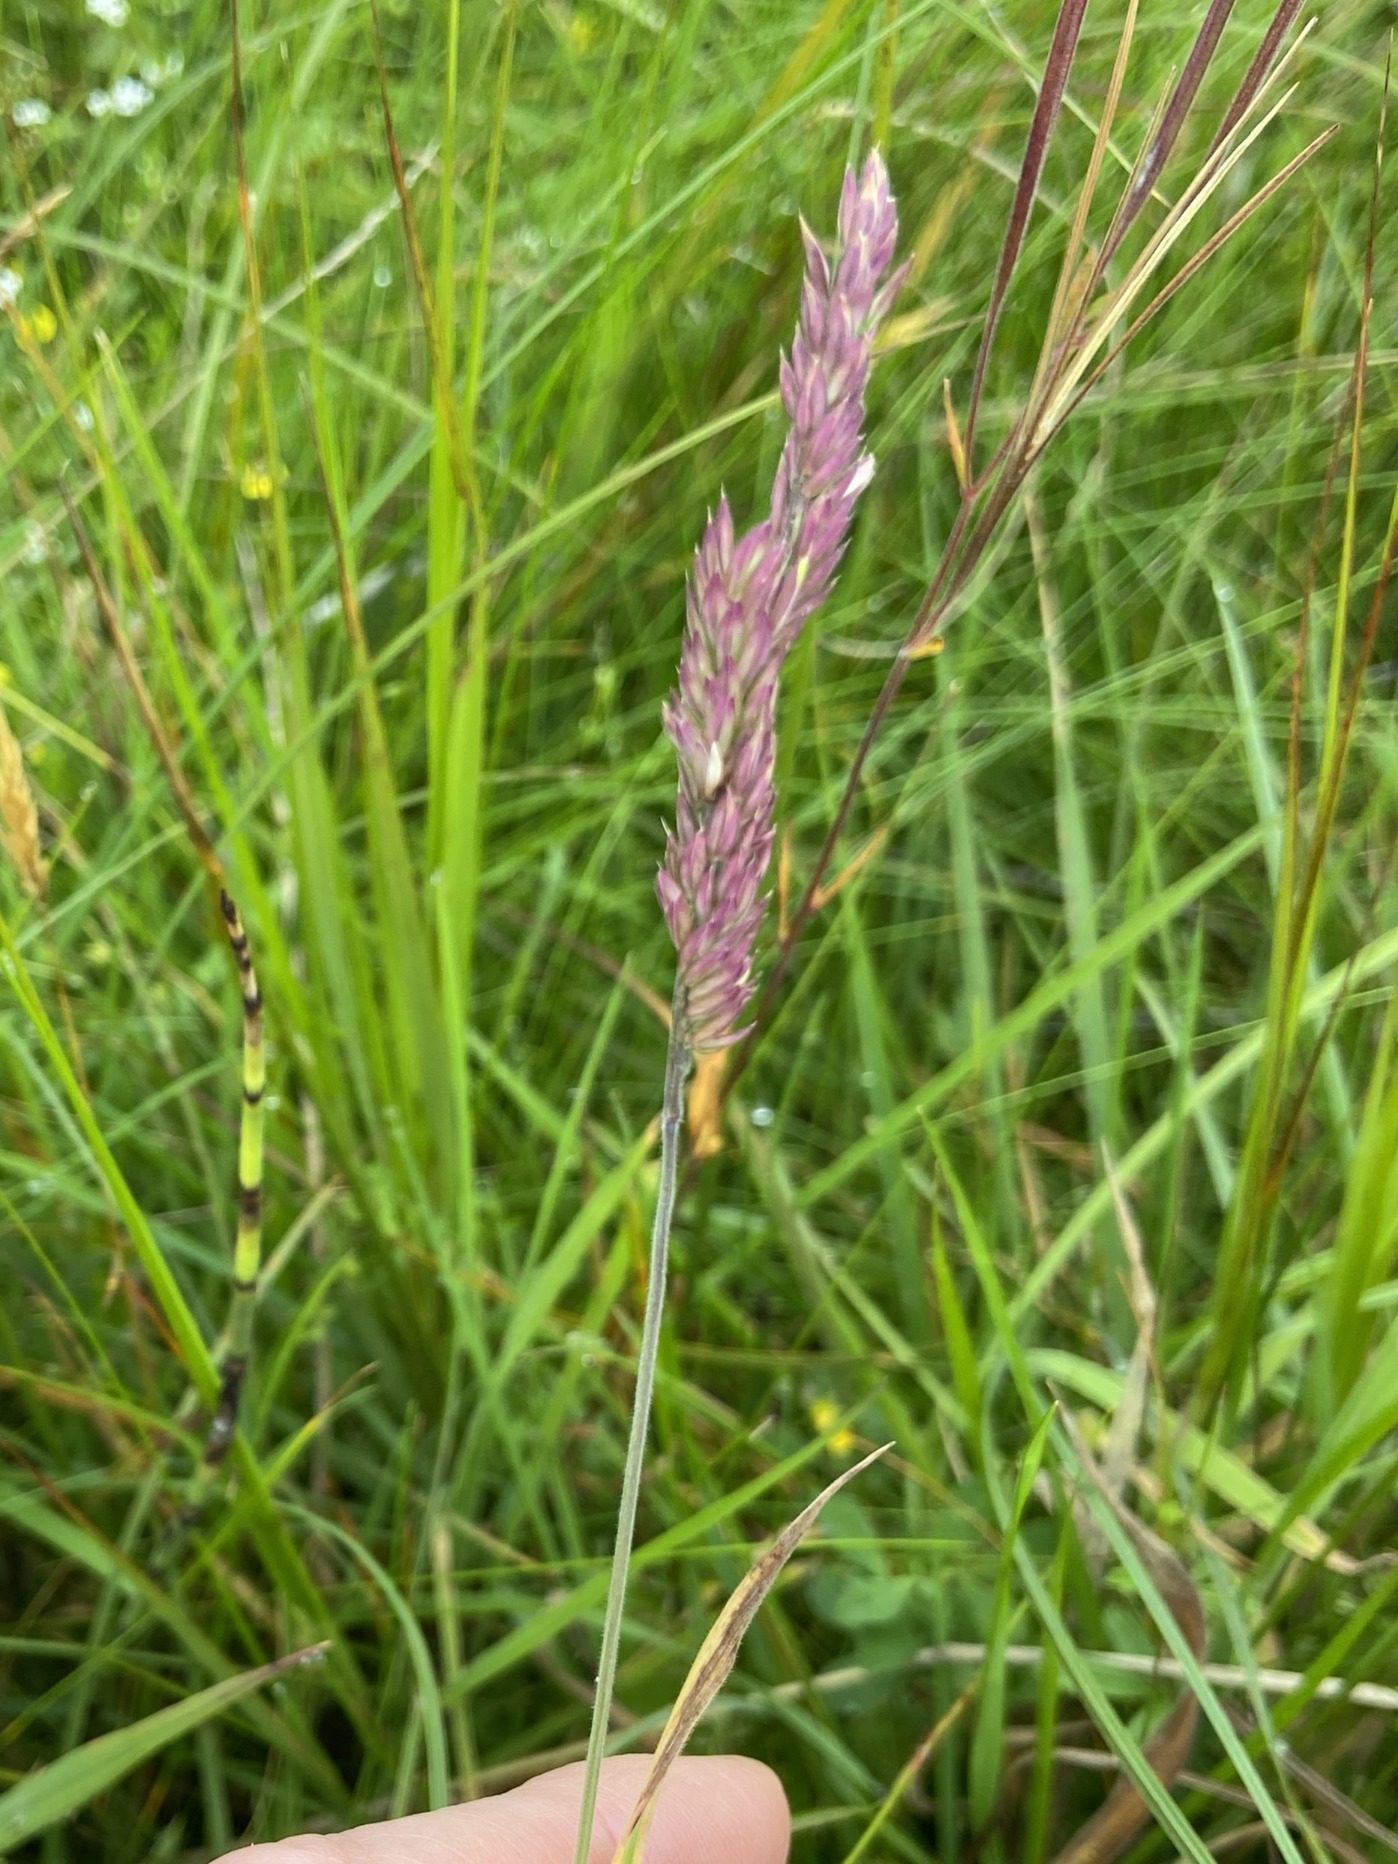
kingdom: Plantae
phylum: Tracheophyta
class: Liliopsida
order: Poales
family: Poaceae
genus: Holcus
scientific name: Holcus lanatus
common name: Fløjlsgræs
